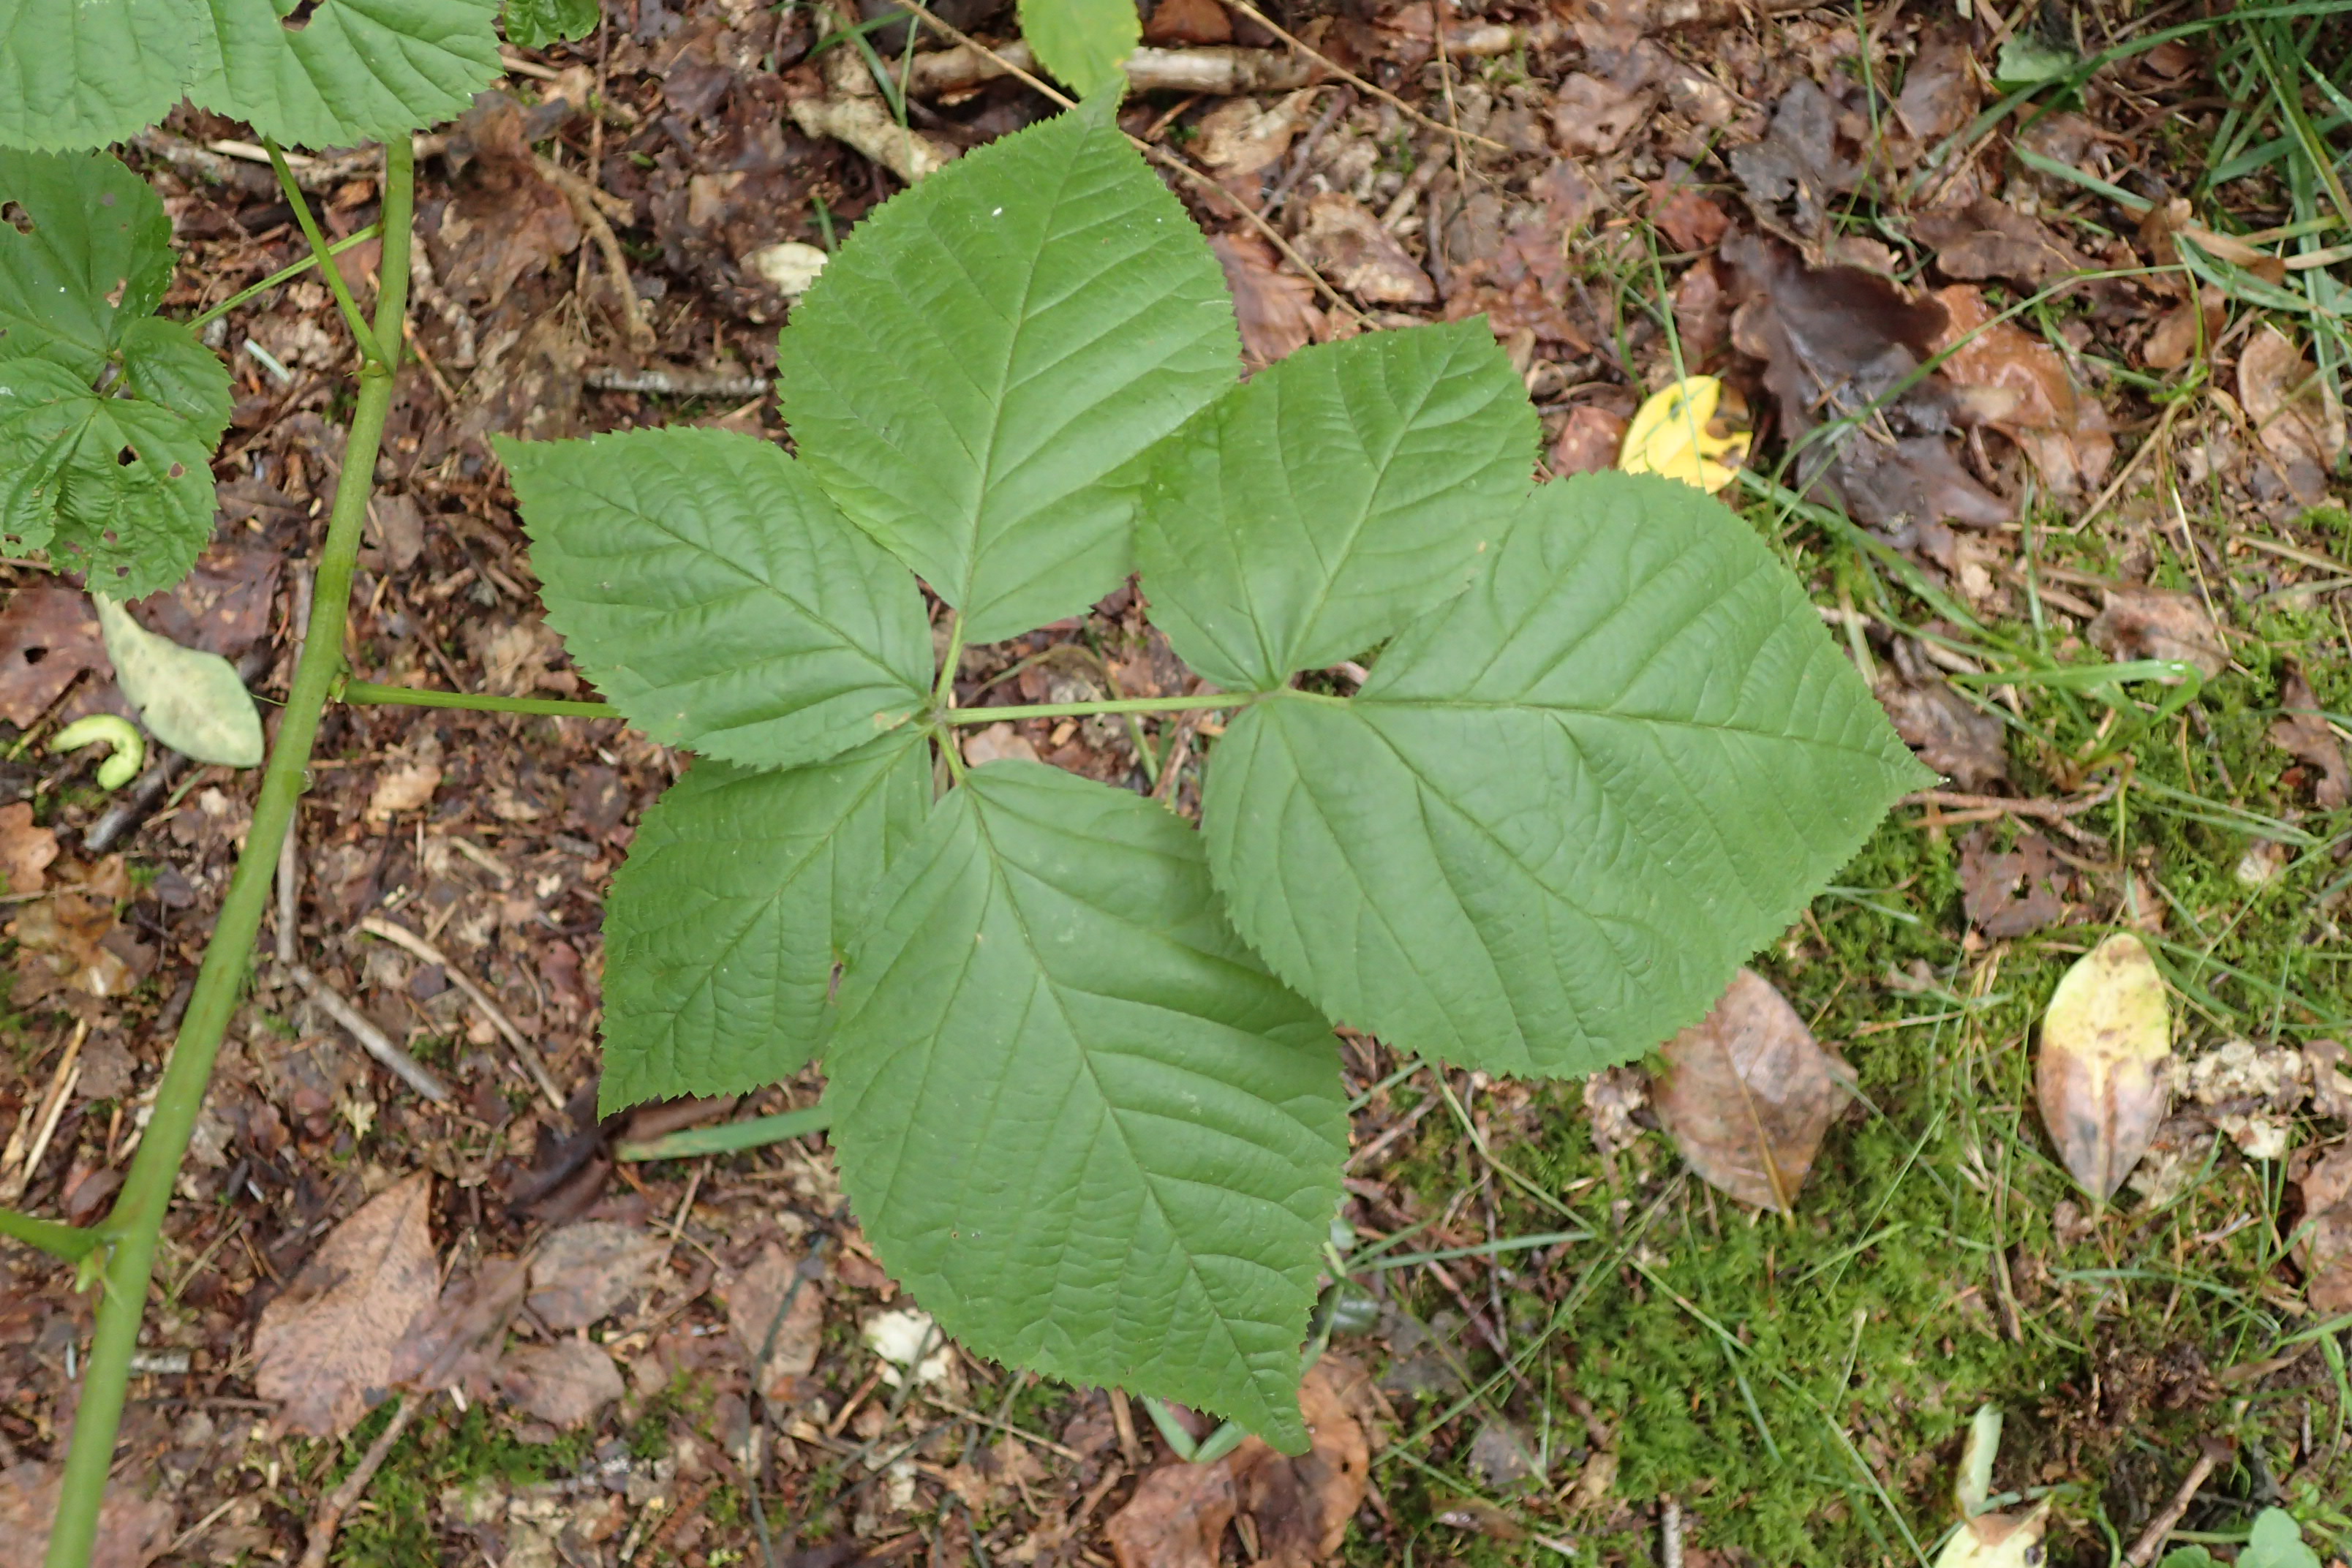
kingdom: Plantae
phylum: Tracheophyta
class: Magnoliopsida
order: Rosales
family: Rosaceae
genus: Rubus
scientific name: Rubus polonicus
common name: Skov-brombær
